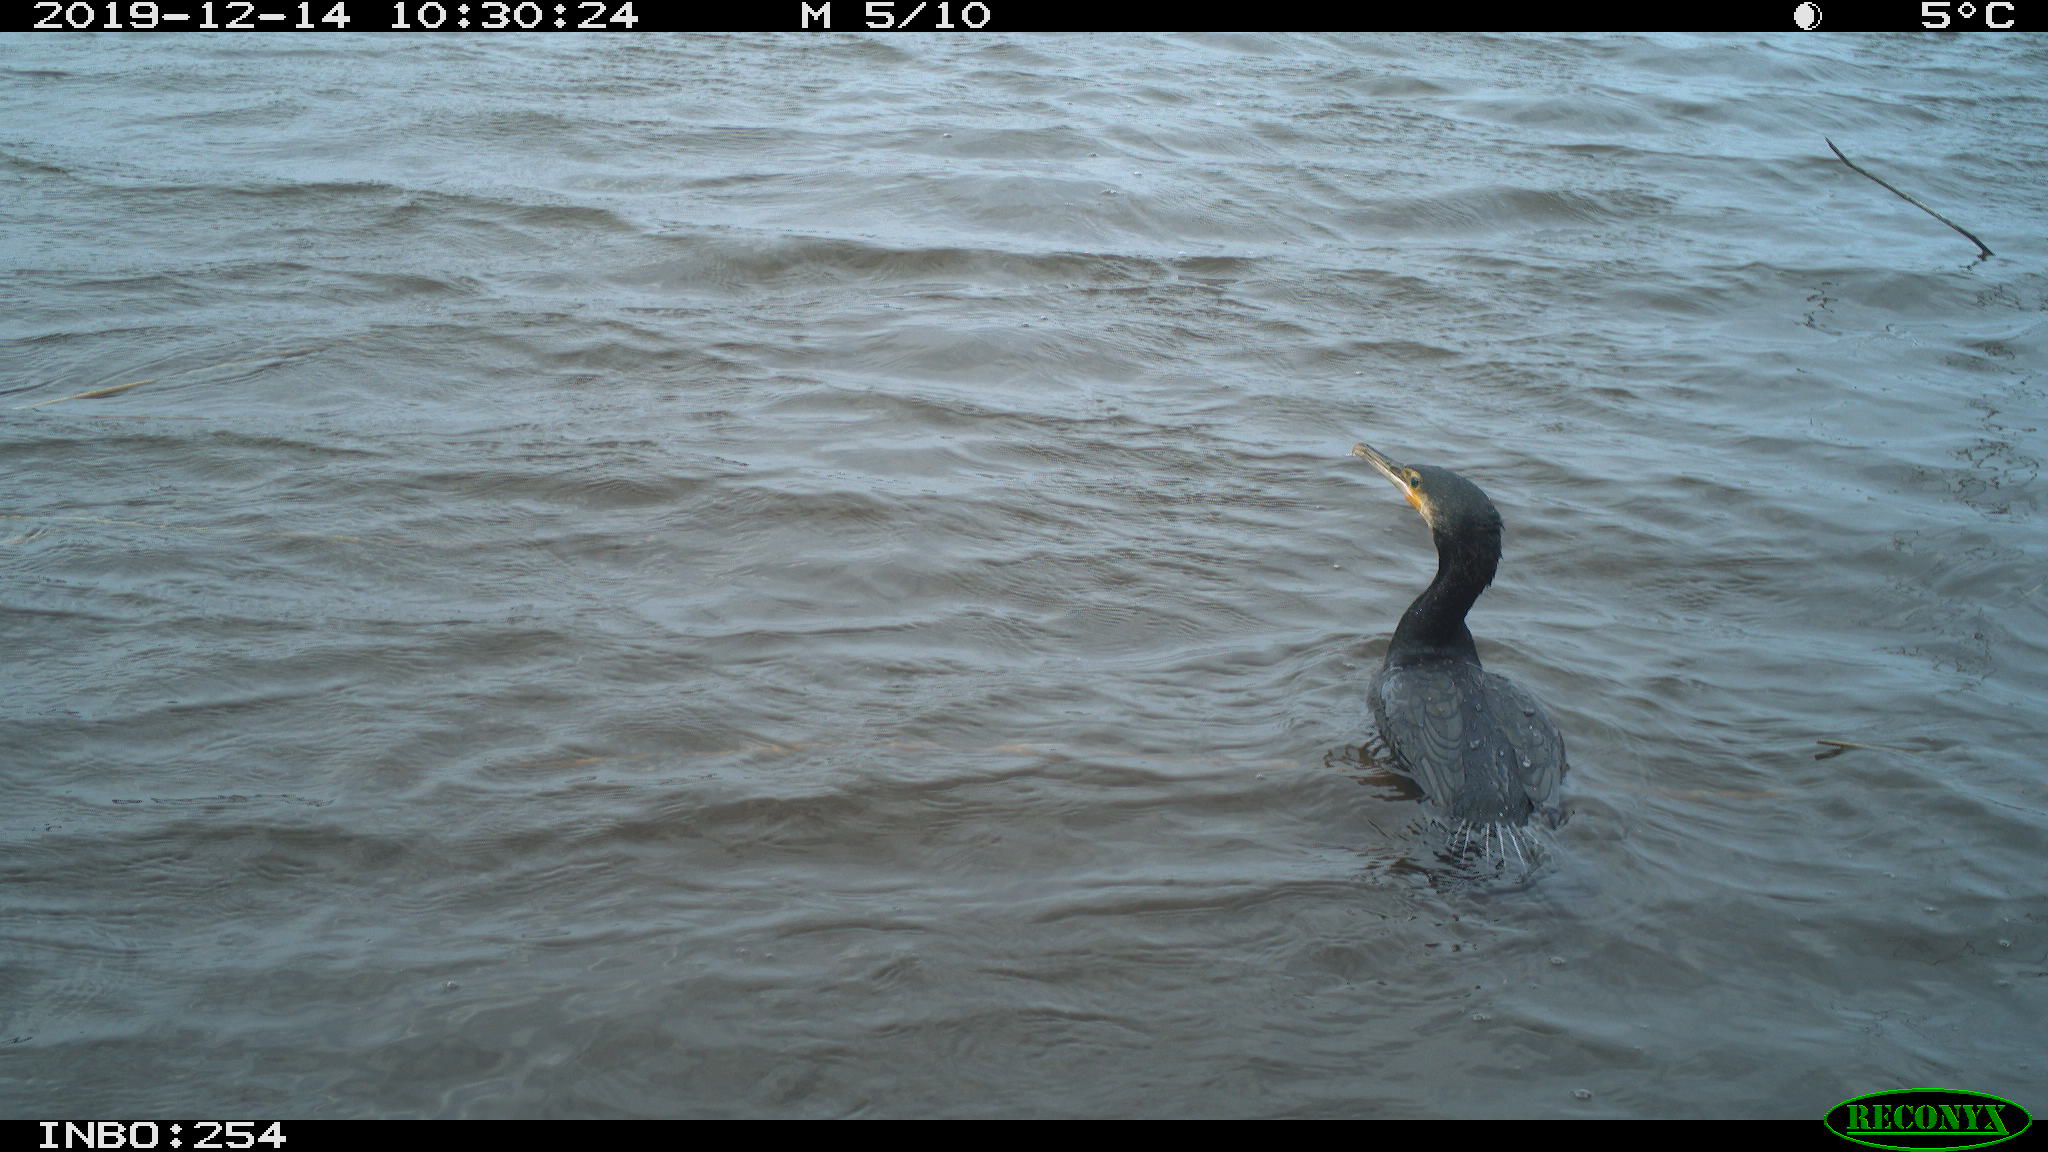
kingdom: Animalia
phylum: Chordata
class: Aves
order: Suliformes
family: Phalacrocoracidae
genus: Phalacrocorax
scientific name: Phalacrocorax carbo
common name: Great cormorant
